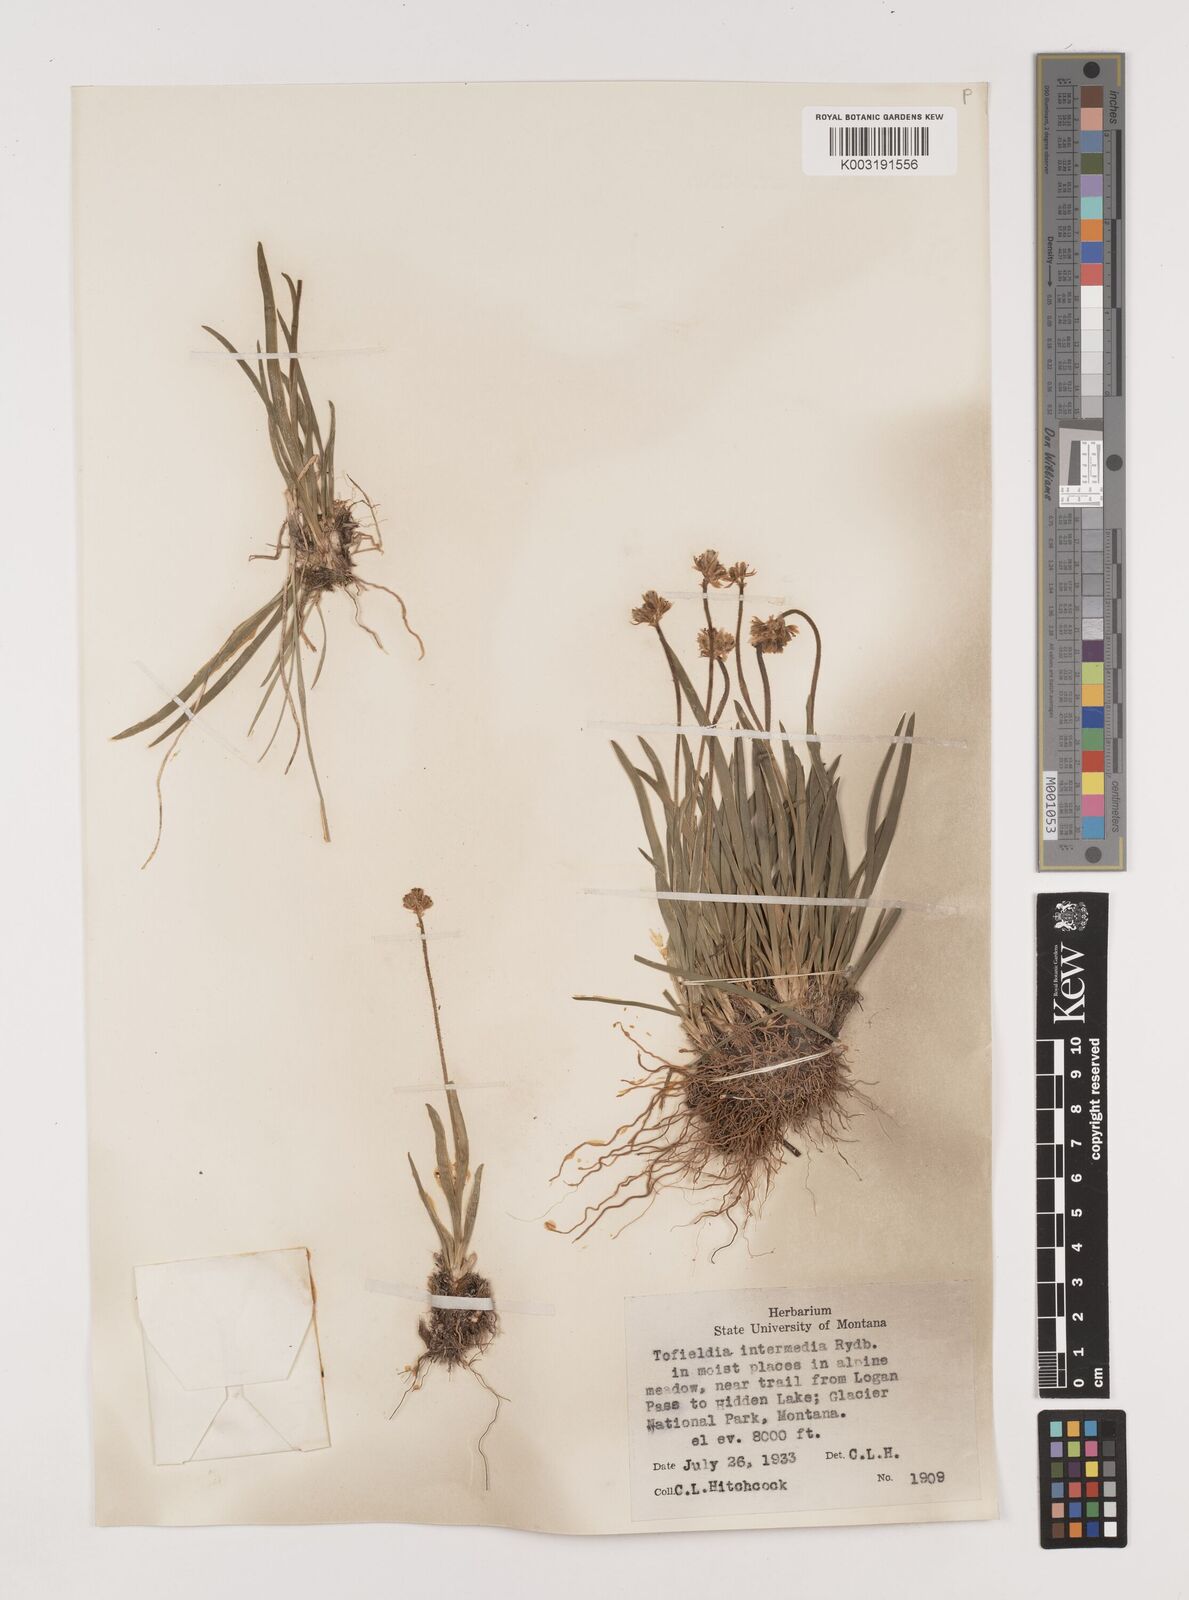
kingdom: Plantae
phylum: Tracheophyta
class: Liliopsida
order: Alismatales
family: Tofieldiaceae
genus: Triantha
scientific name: Triantha occidentalis
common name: Western false asphodel
